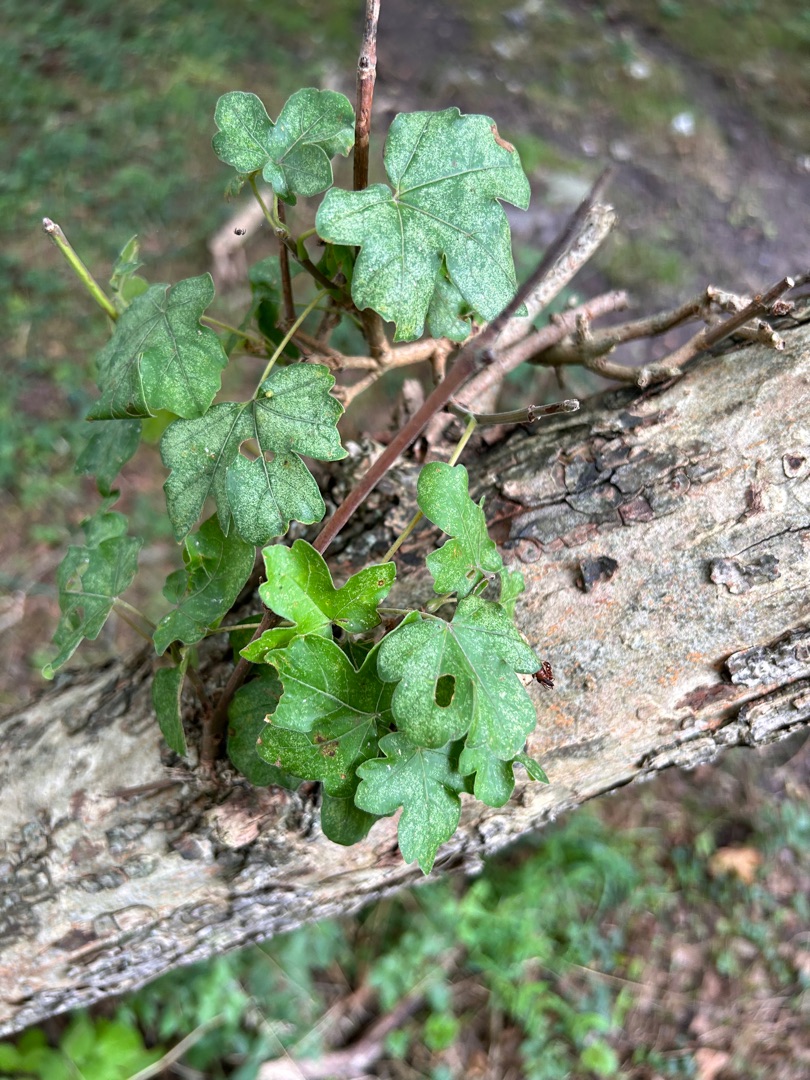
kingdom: Plantae
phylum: Tracheophyta
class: Magnoliopsida
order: Sapindales
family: Sapindaceae
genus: Acer
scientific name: Acer campestre
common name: Navr
